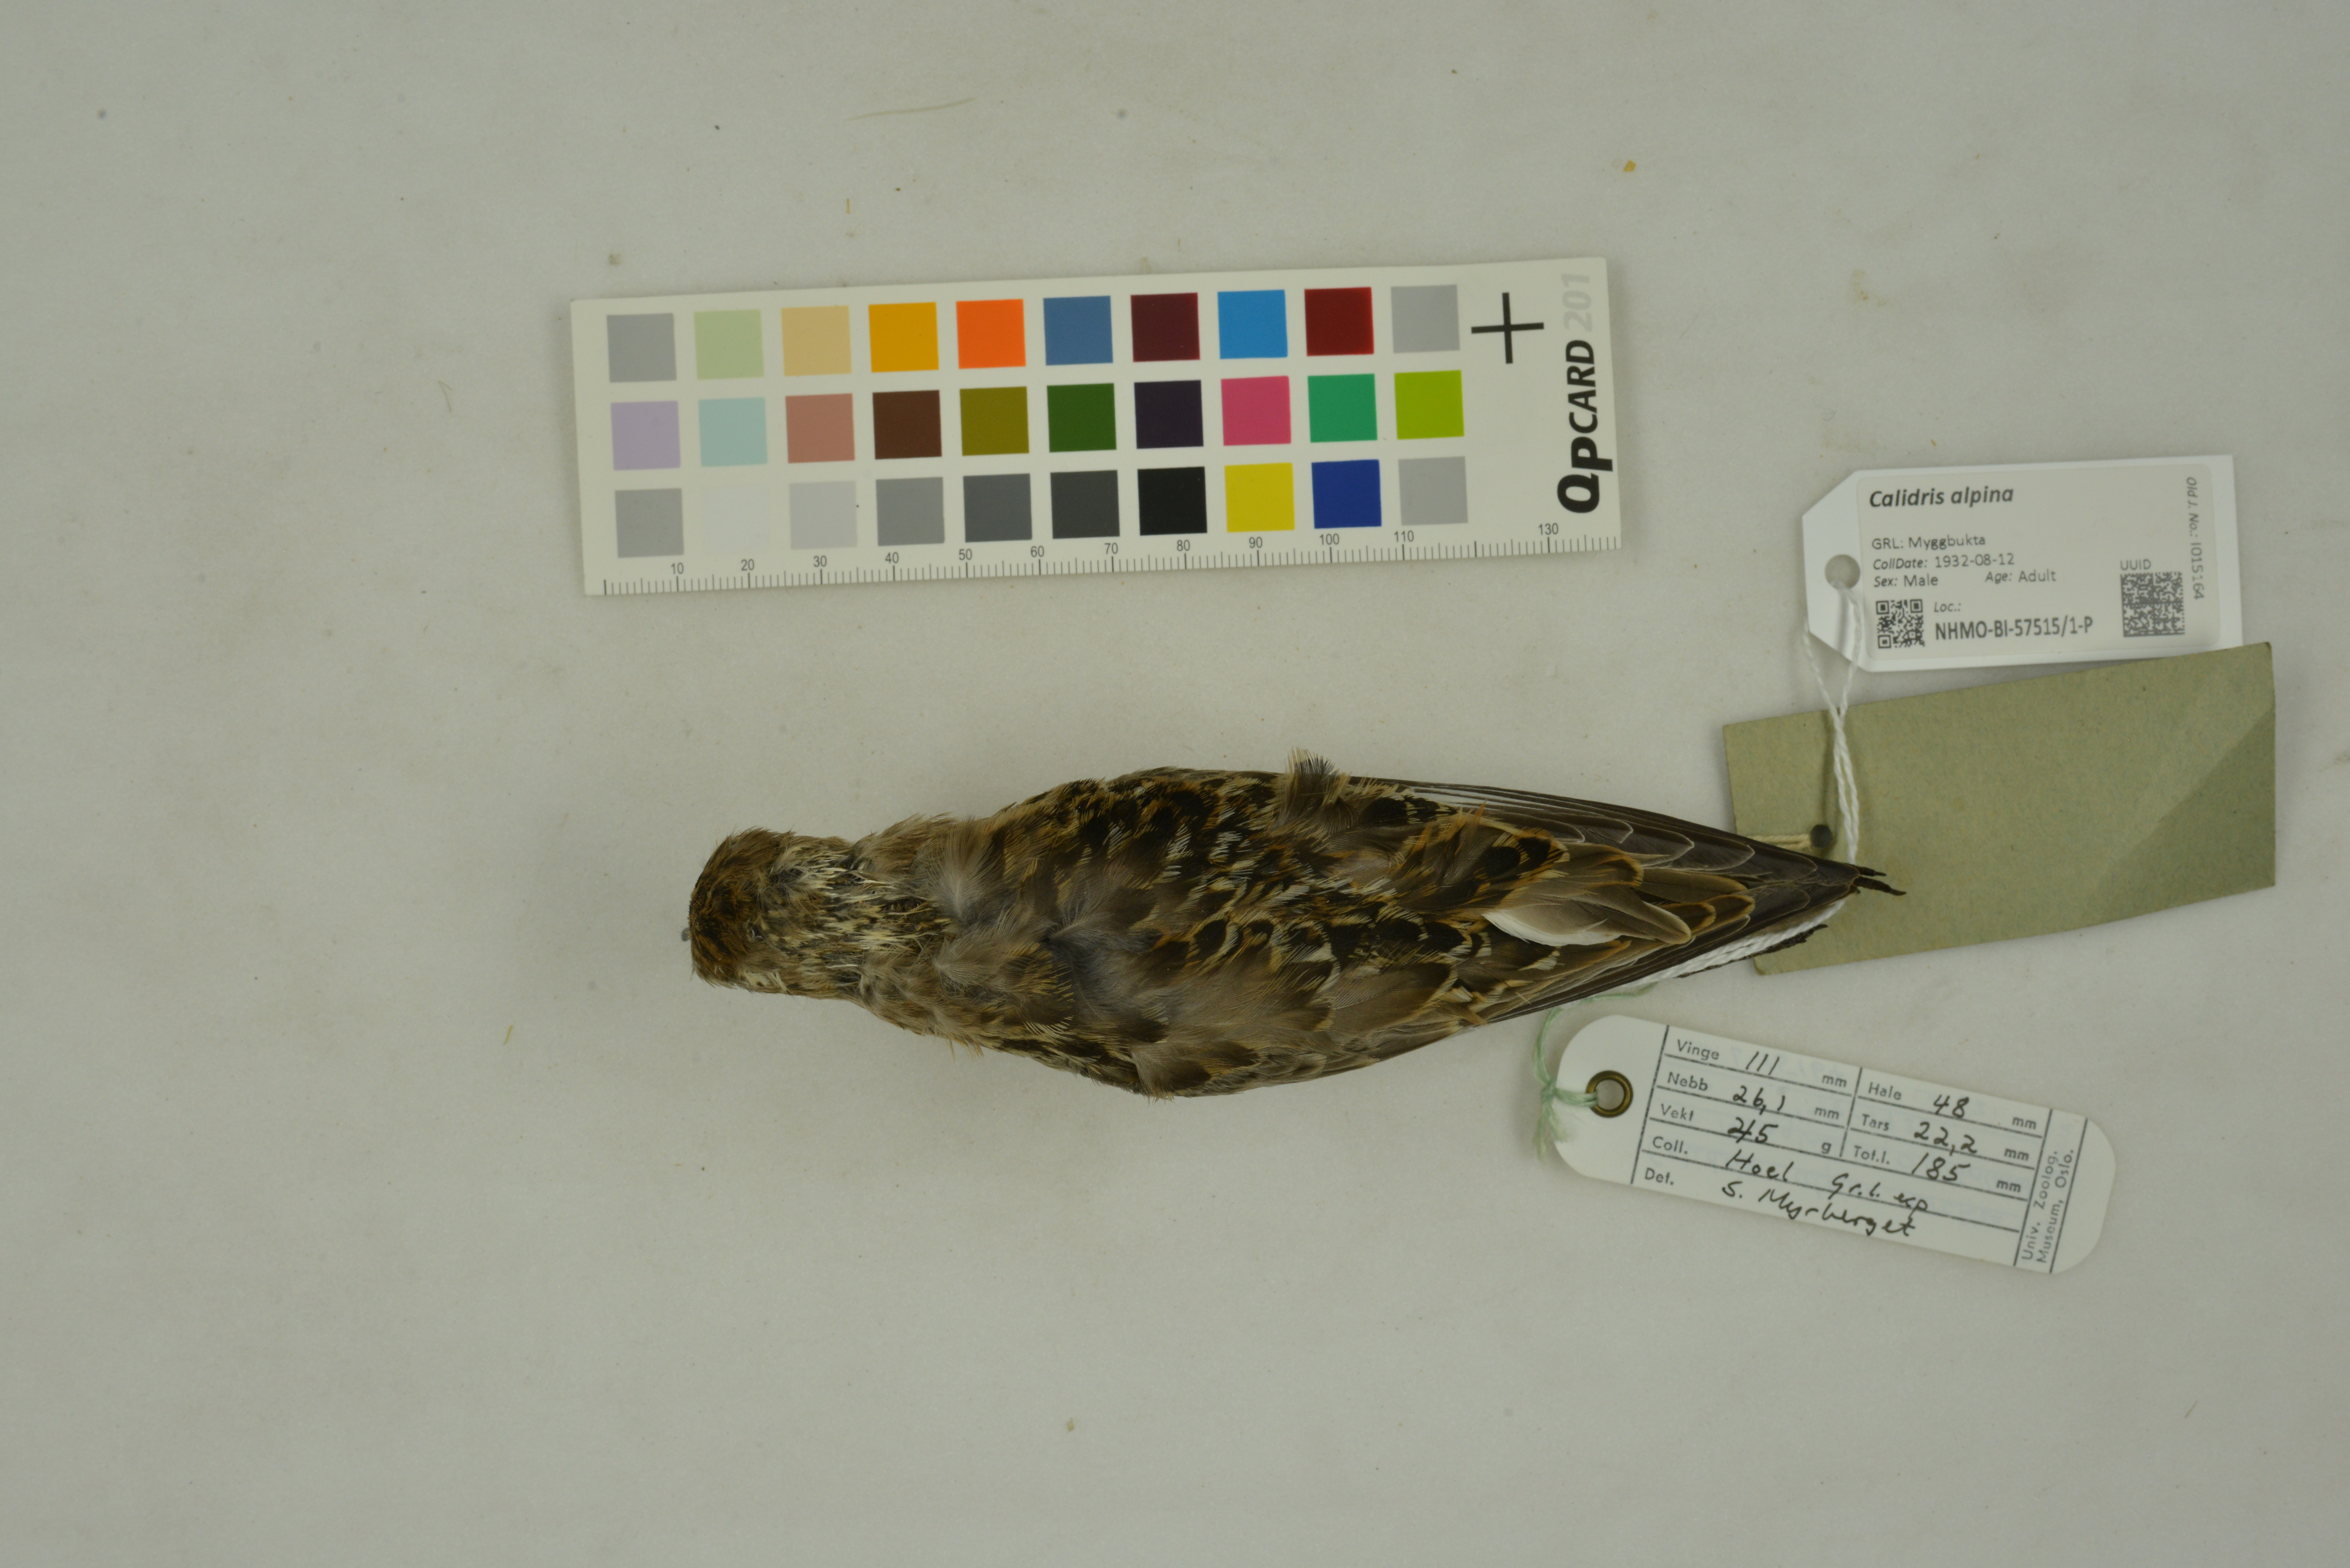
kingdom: Animalia
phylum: Chordata
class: Aves
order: Charadriiformes
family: Scolopacidae
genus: Calidris
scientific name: Calidris alpina
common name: Dunlin
